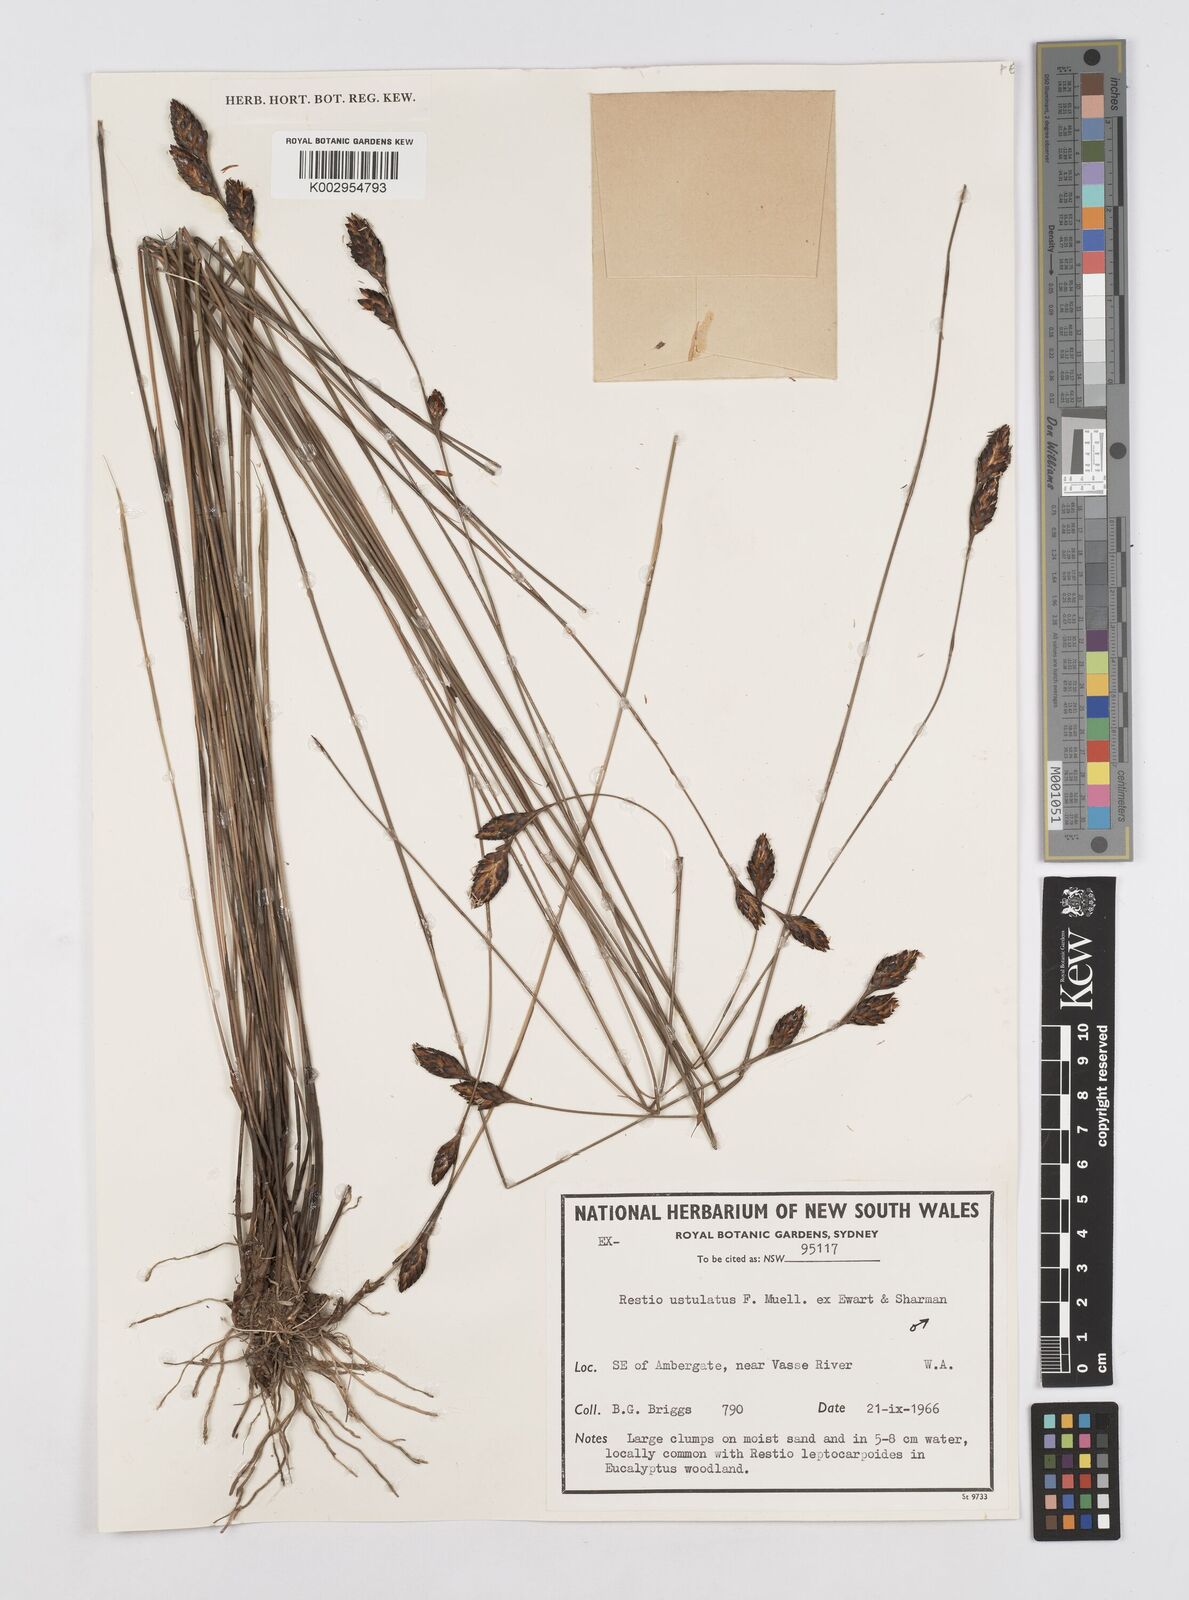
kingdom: Plantae
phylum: Tracheophyta
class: Liliopsida
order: Poales
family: Restionaceae
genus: Melanostachya
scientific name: Melanostachya ustulata
